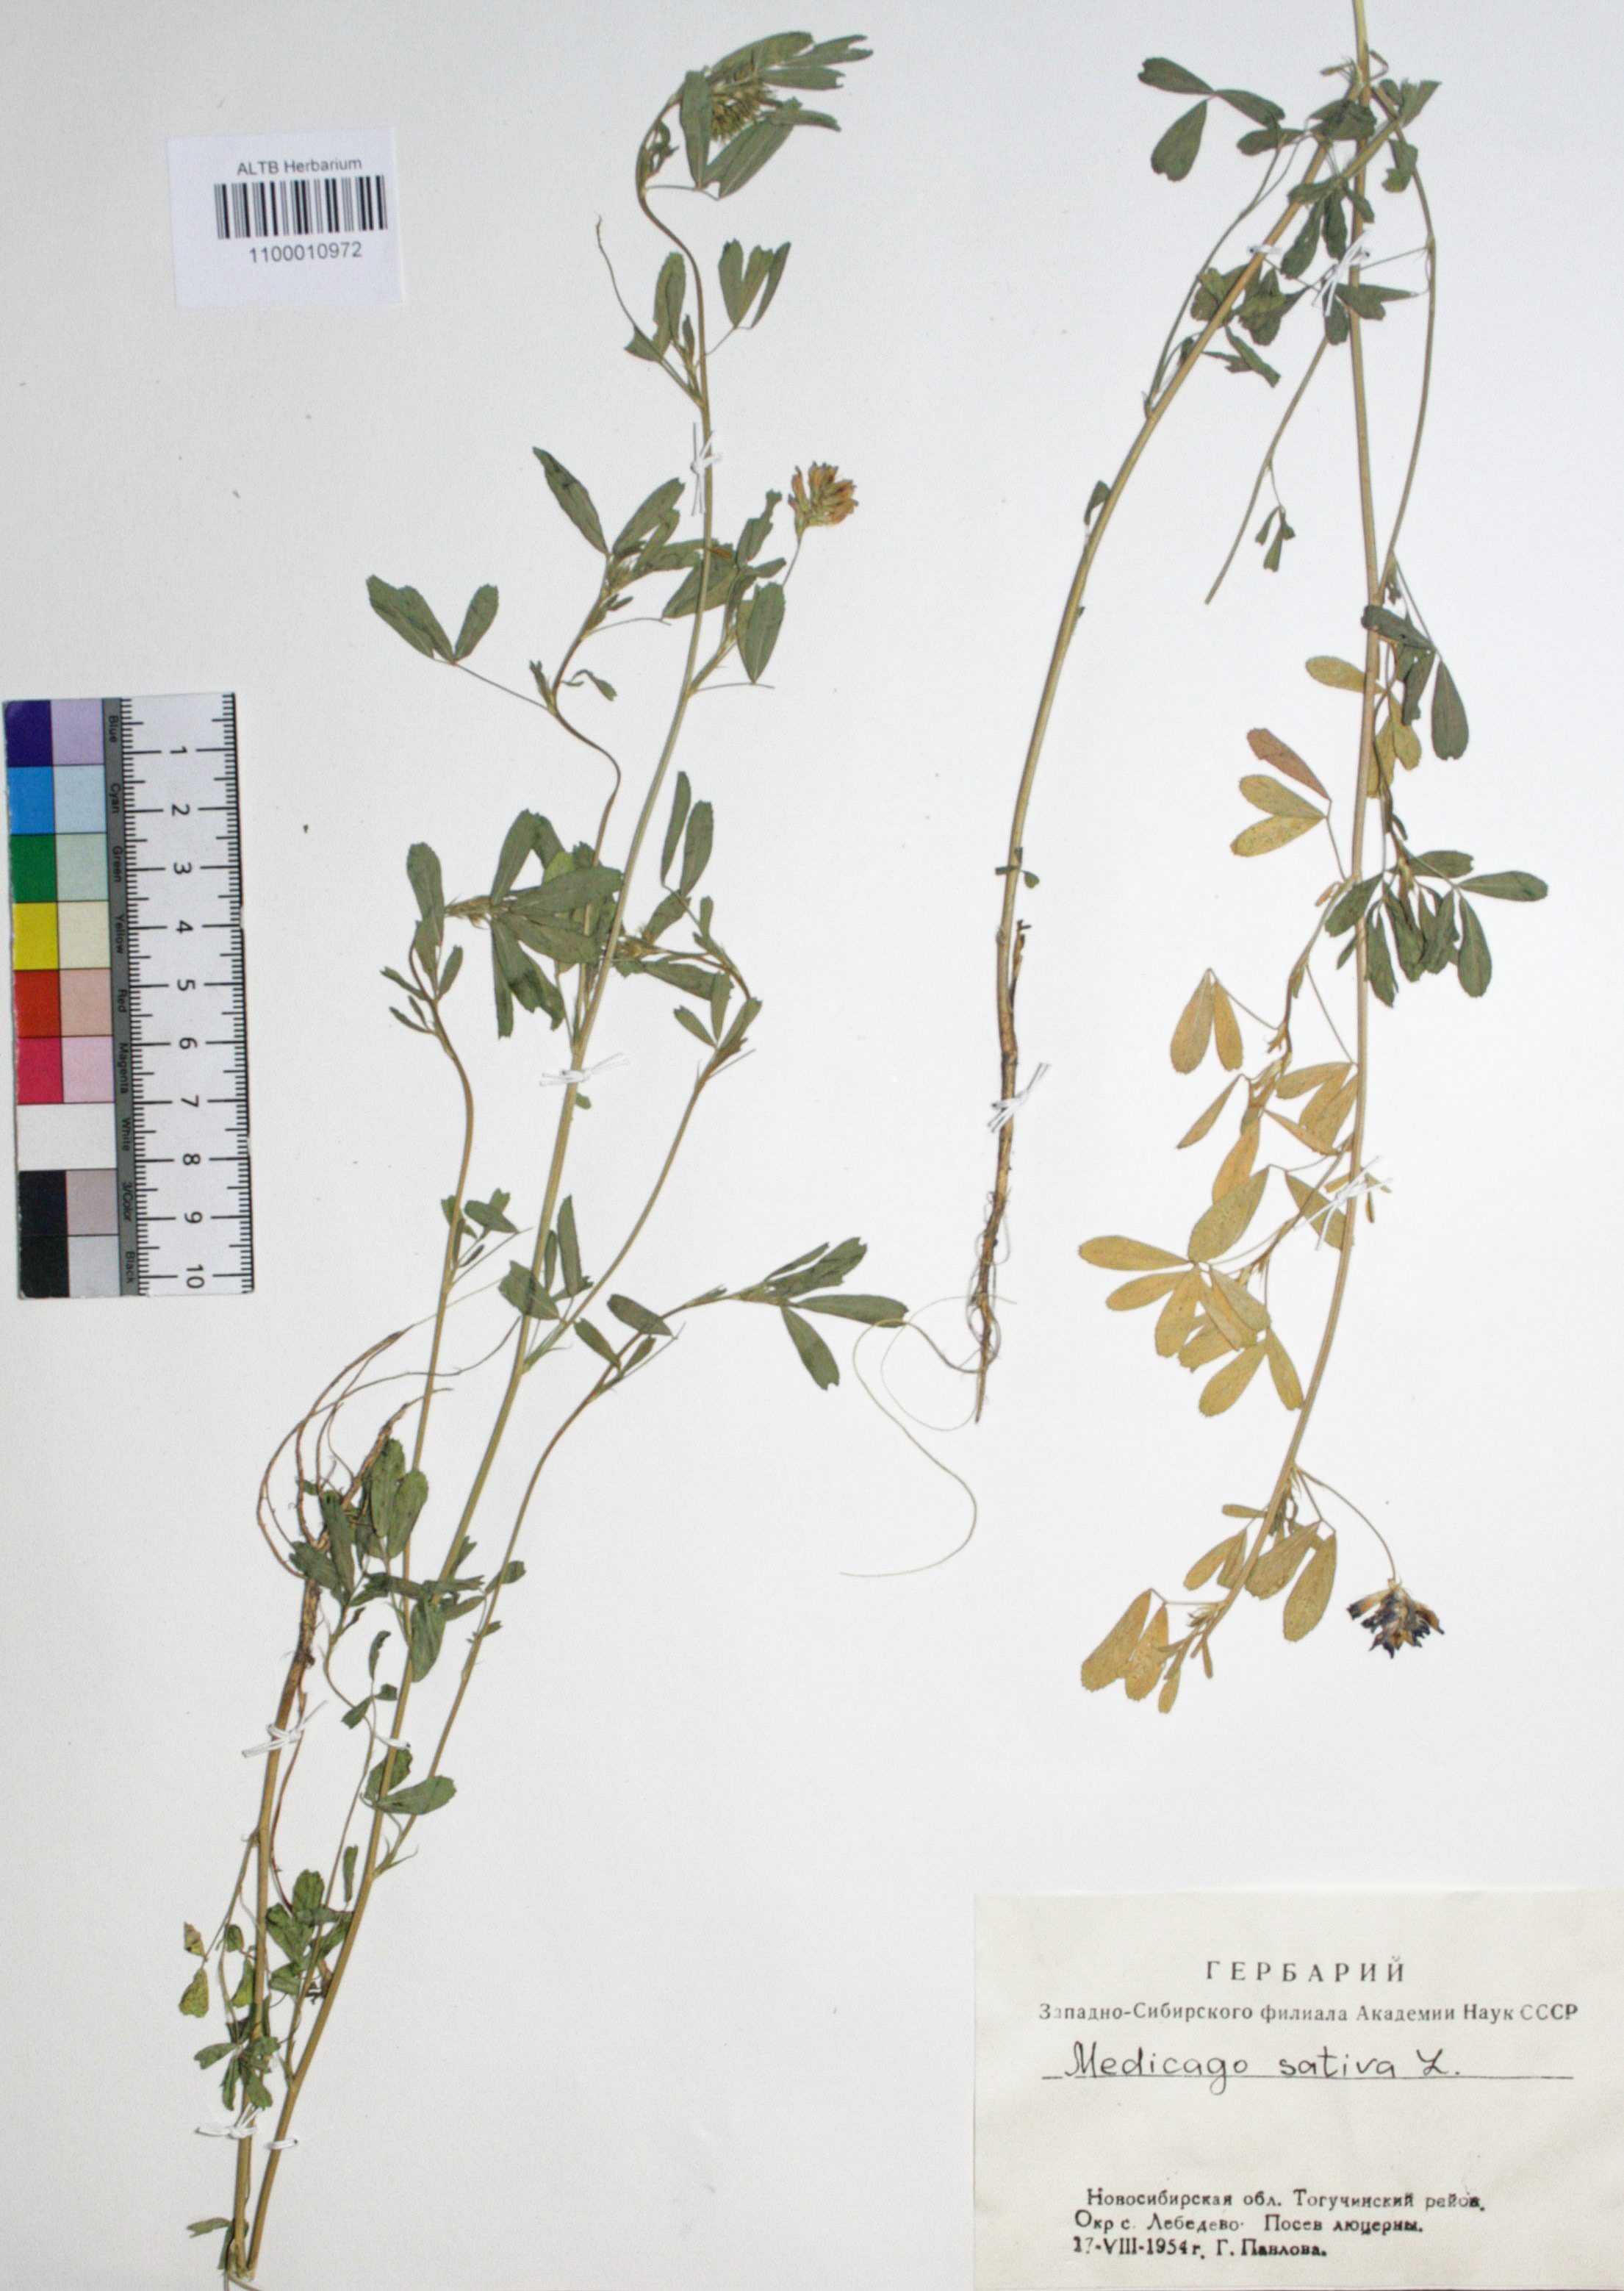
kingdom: Plantae
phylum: Tracheophyta
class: Magnoliopsida
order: Fabales
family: Fabaceae
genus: Medicago
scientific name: Medicago sativa
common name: Alfalfa
